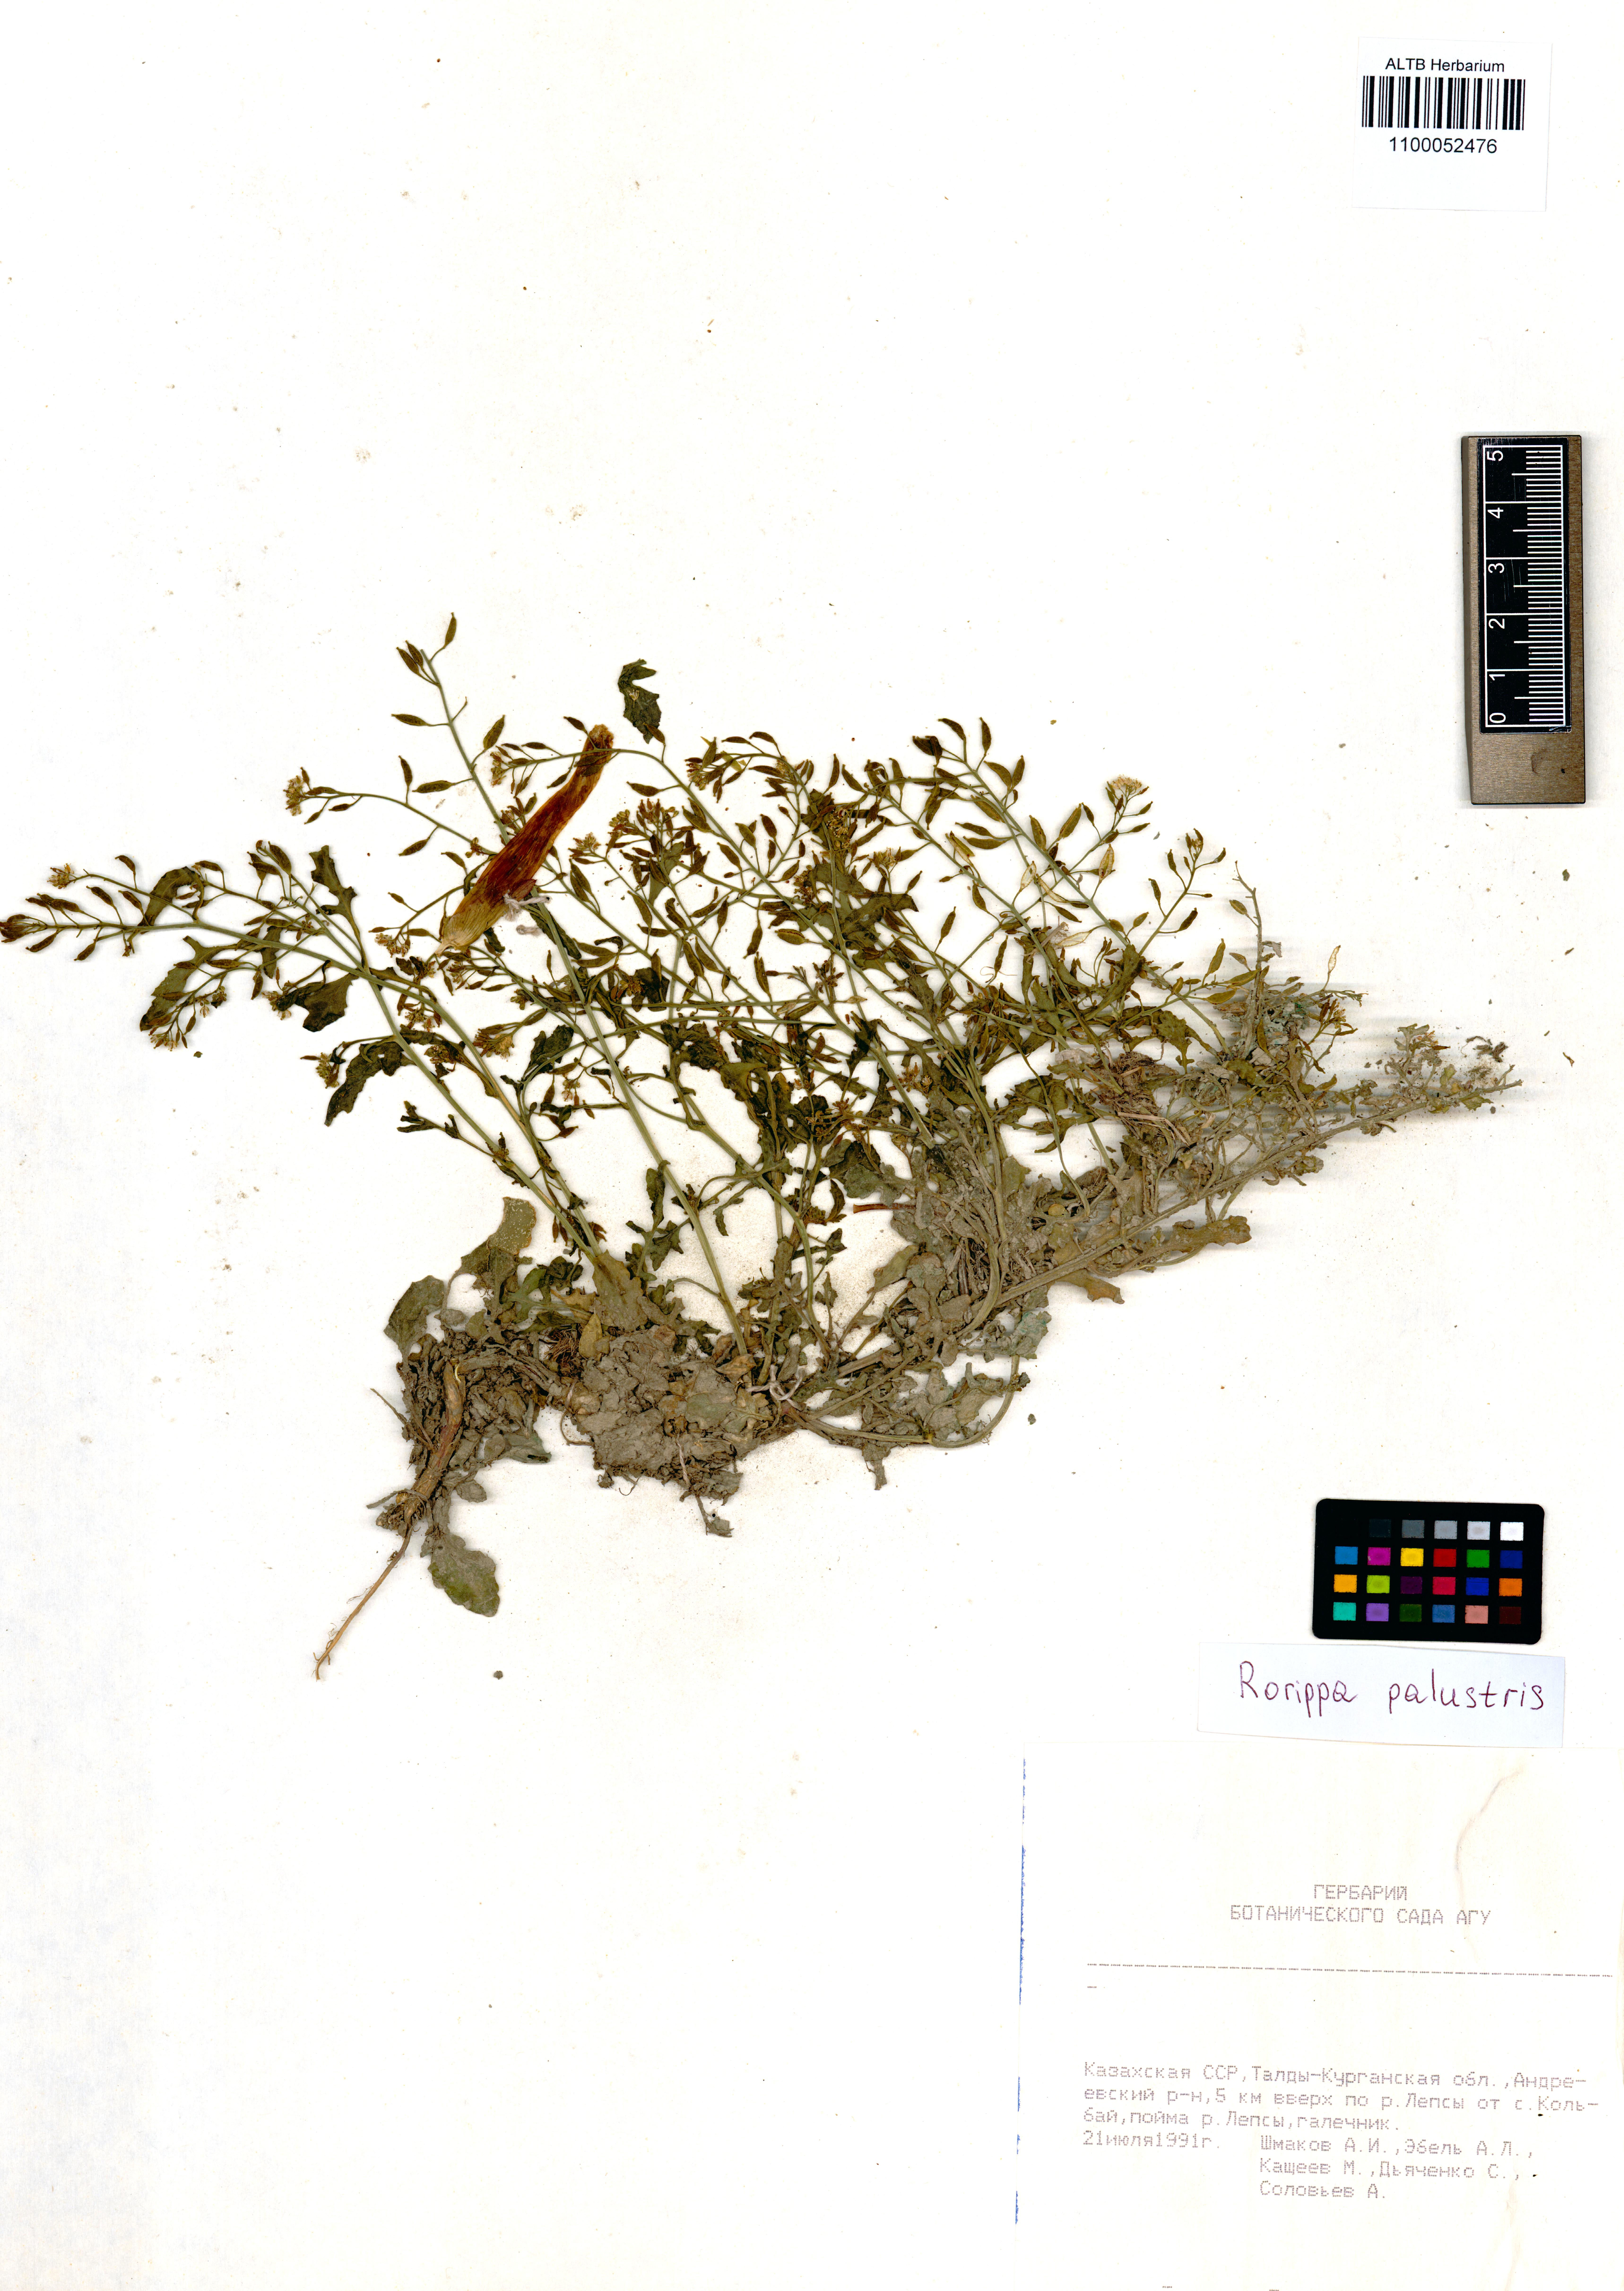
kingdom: Plantae
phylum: Tracheophyta
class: Magnoliopsida
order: Brassicales
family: Brassicaceae
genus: Rorippa
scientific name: Rorippa palustris
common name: Marsh yellow-cress
